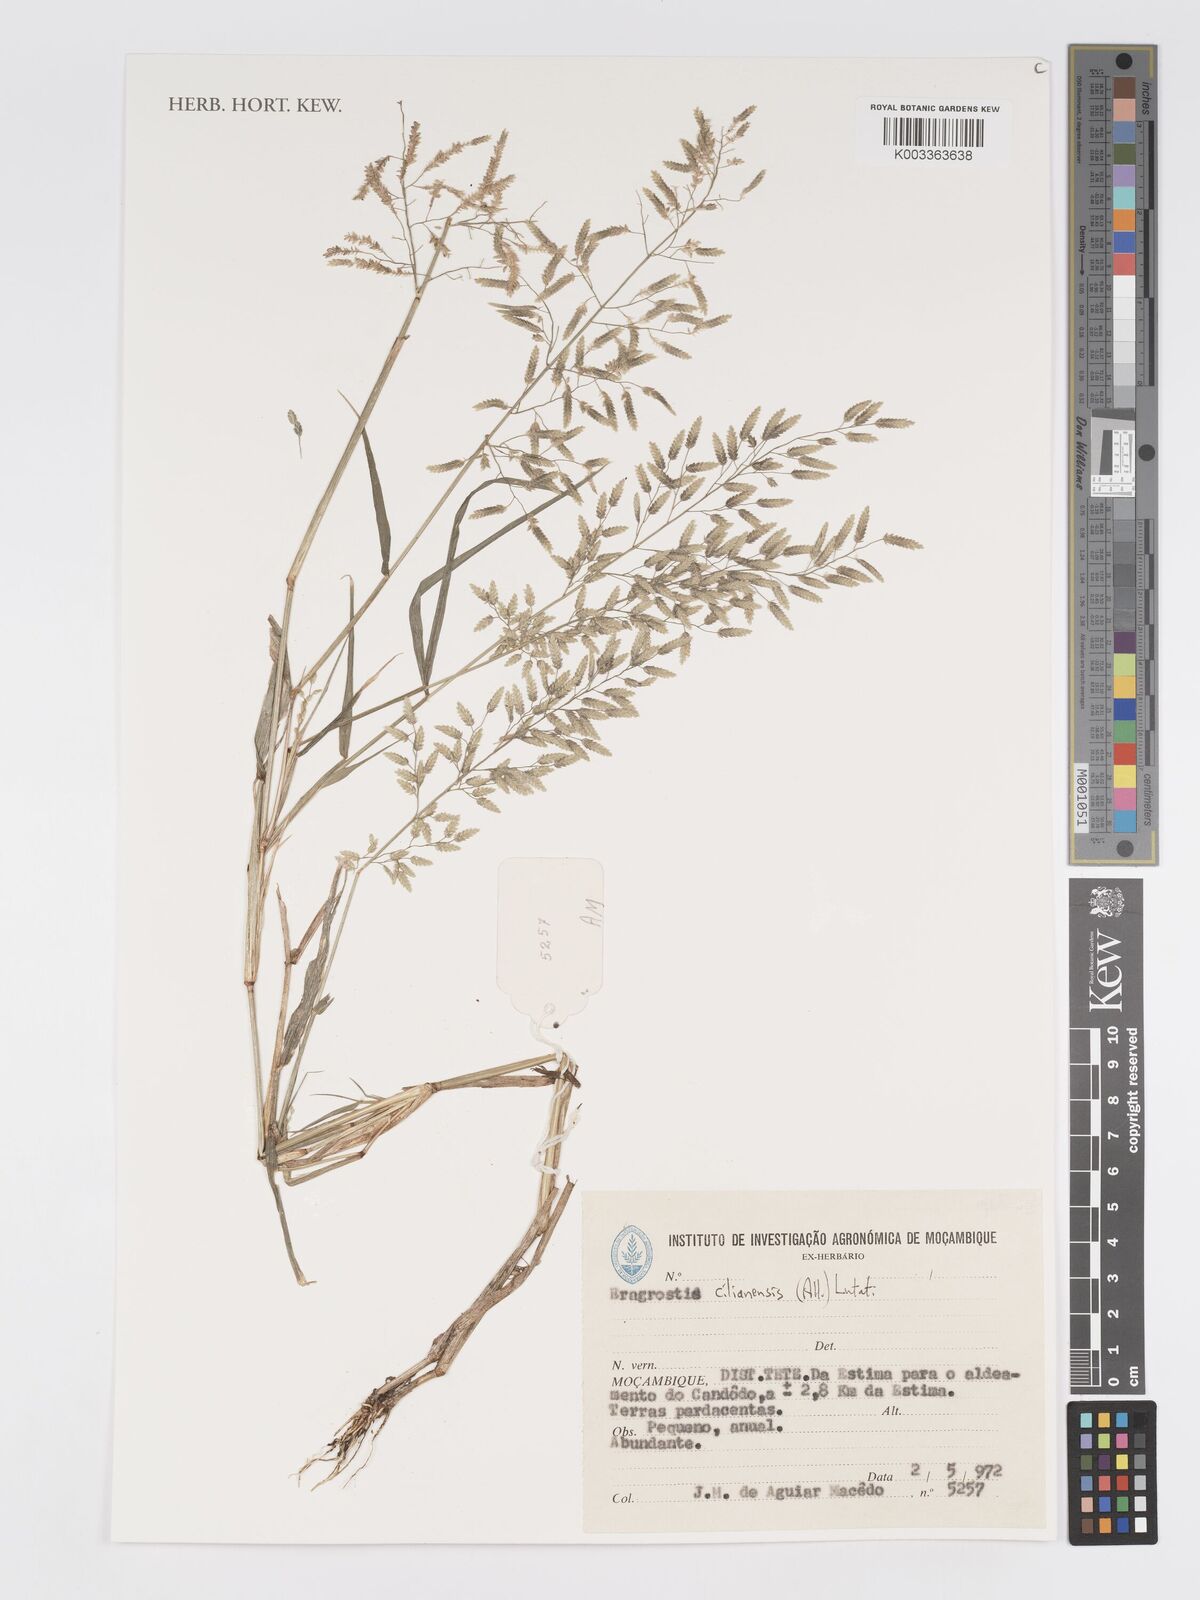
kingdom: Plantae
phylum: Tracheophyta
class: Liliopsida
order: Poales
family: Poaceae
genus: Eragrostis
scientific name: Eragrostis cilianensis
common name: Stinkgrass
